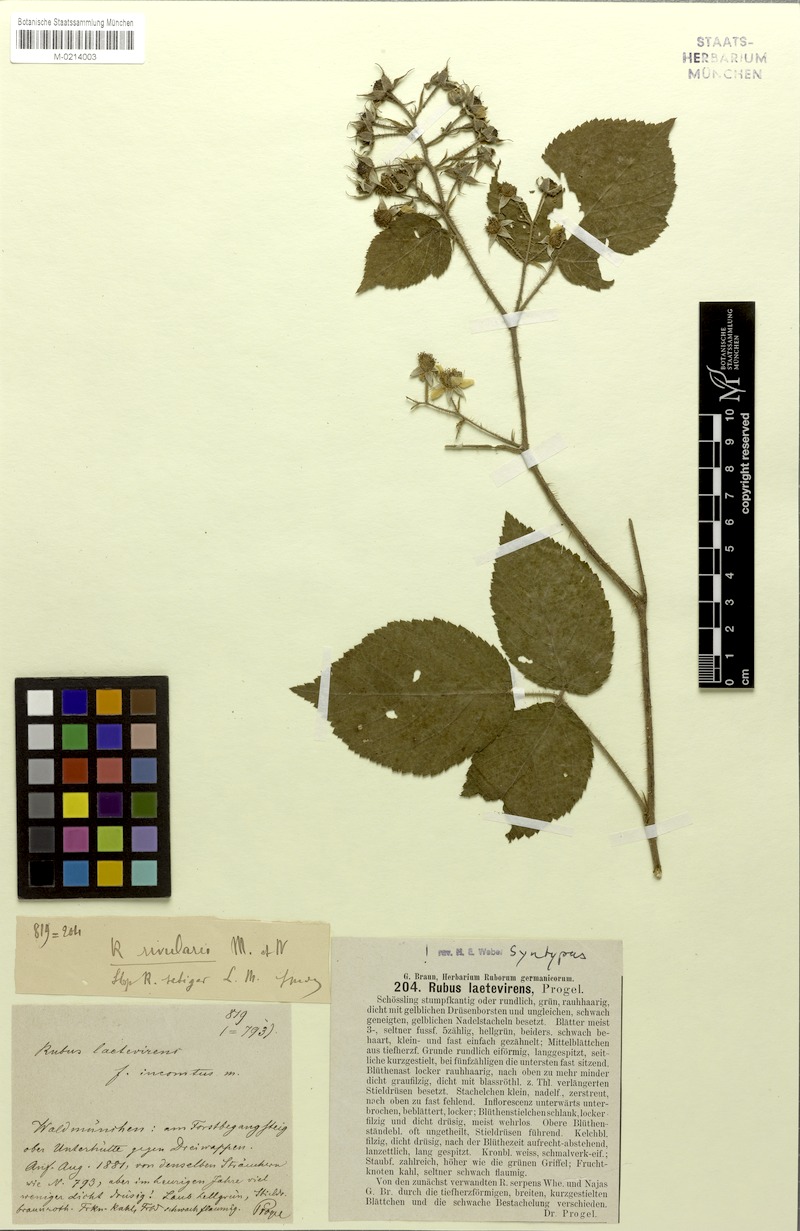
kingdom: Plantae
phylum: Tracheophyta
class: Magnoliopsida
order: Rosales
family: Rosaceae
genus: Rubus
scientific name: Rubus laetevirens
